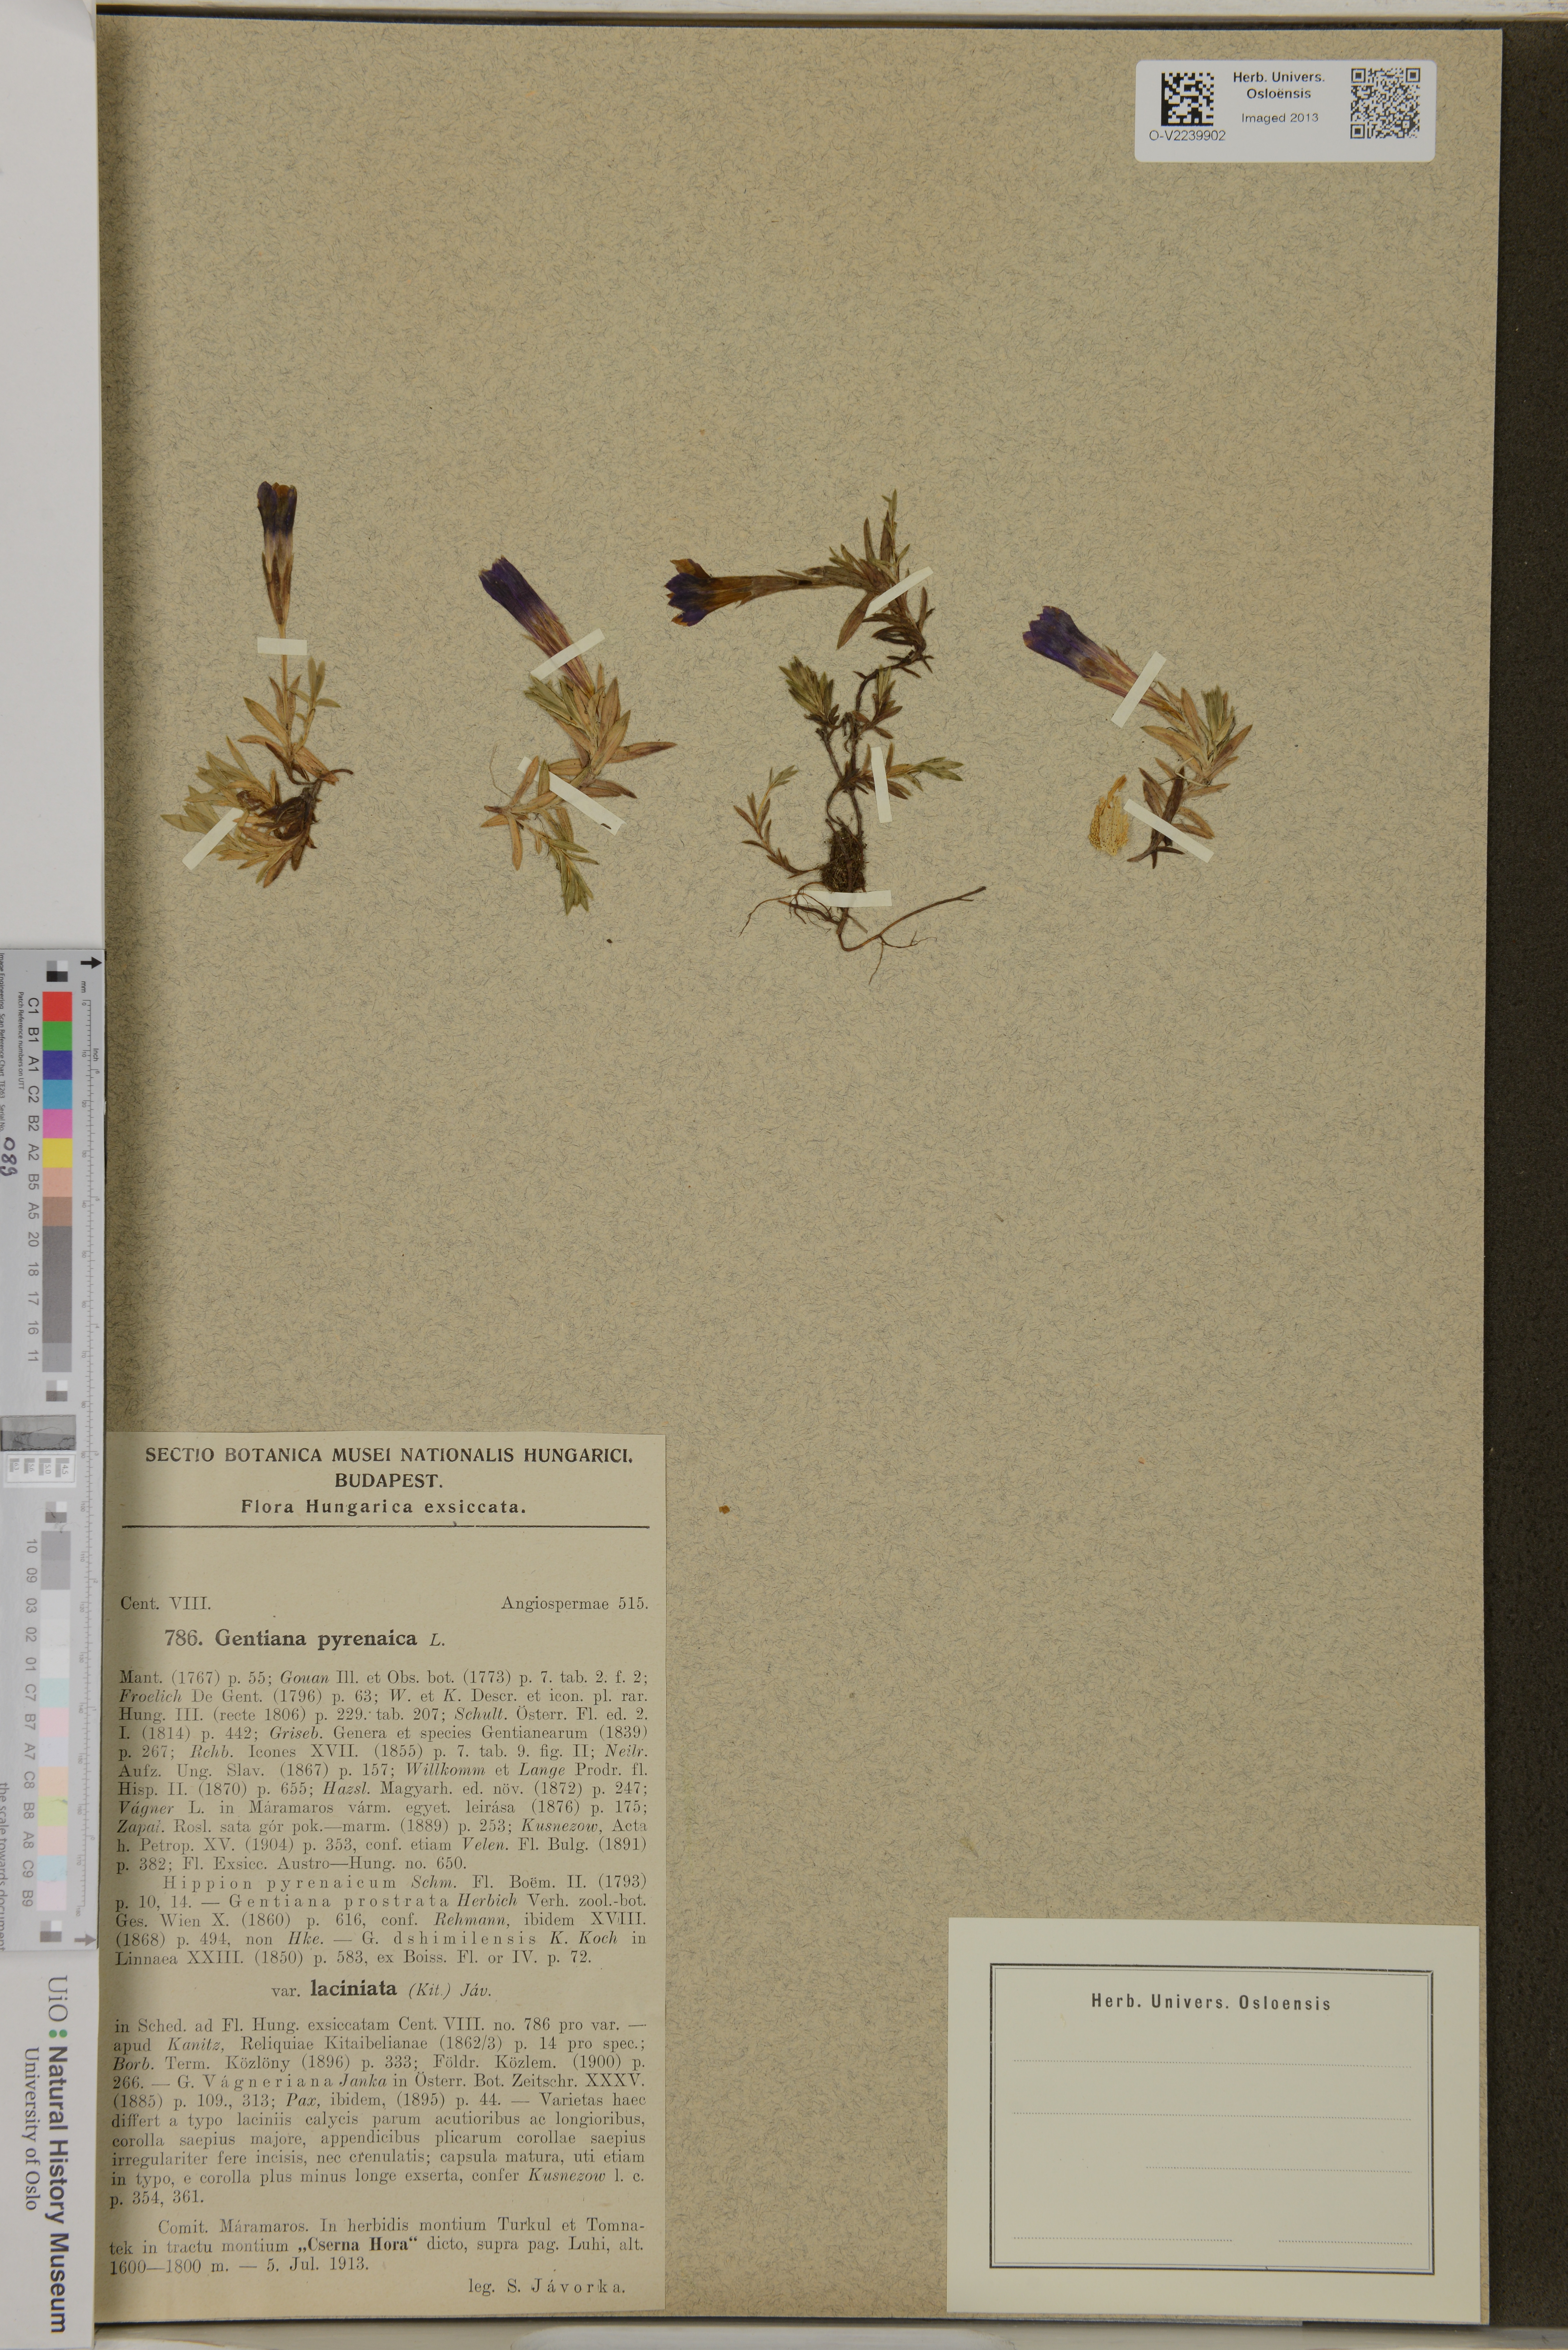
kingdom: Plantae
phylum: Tracheophyta
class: Magnoliopsida
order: Gentianales
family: Gentianaceae
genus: Gentiana
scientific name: Gentiana pyrenaica
